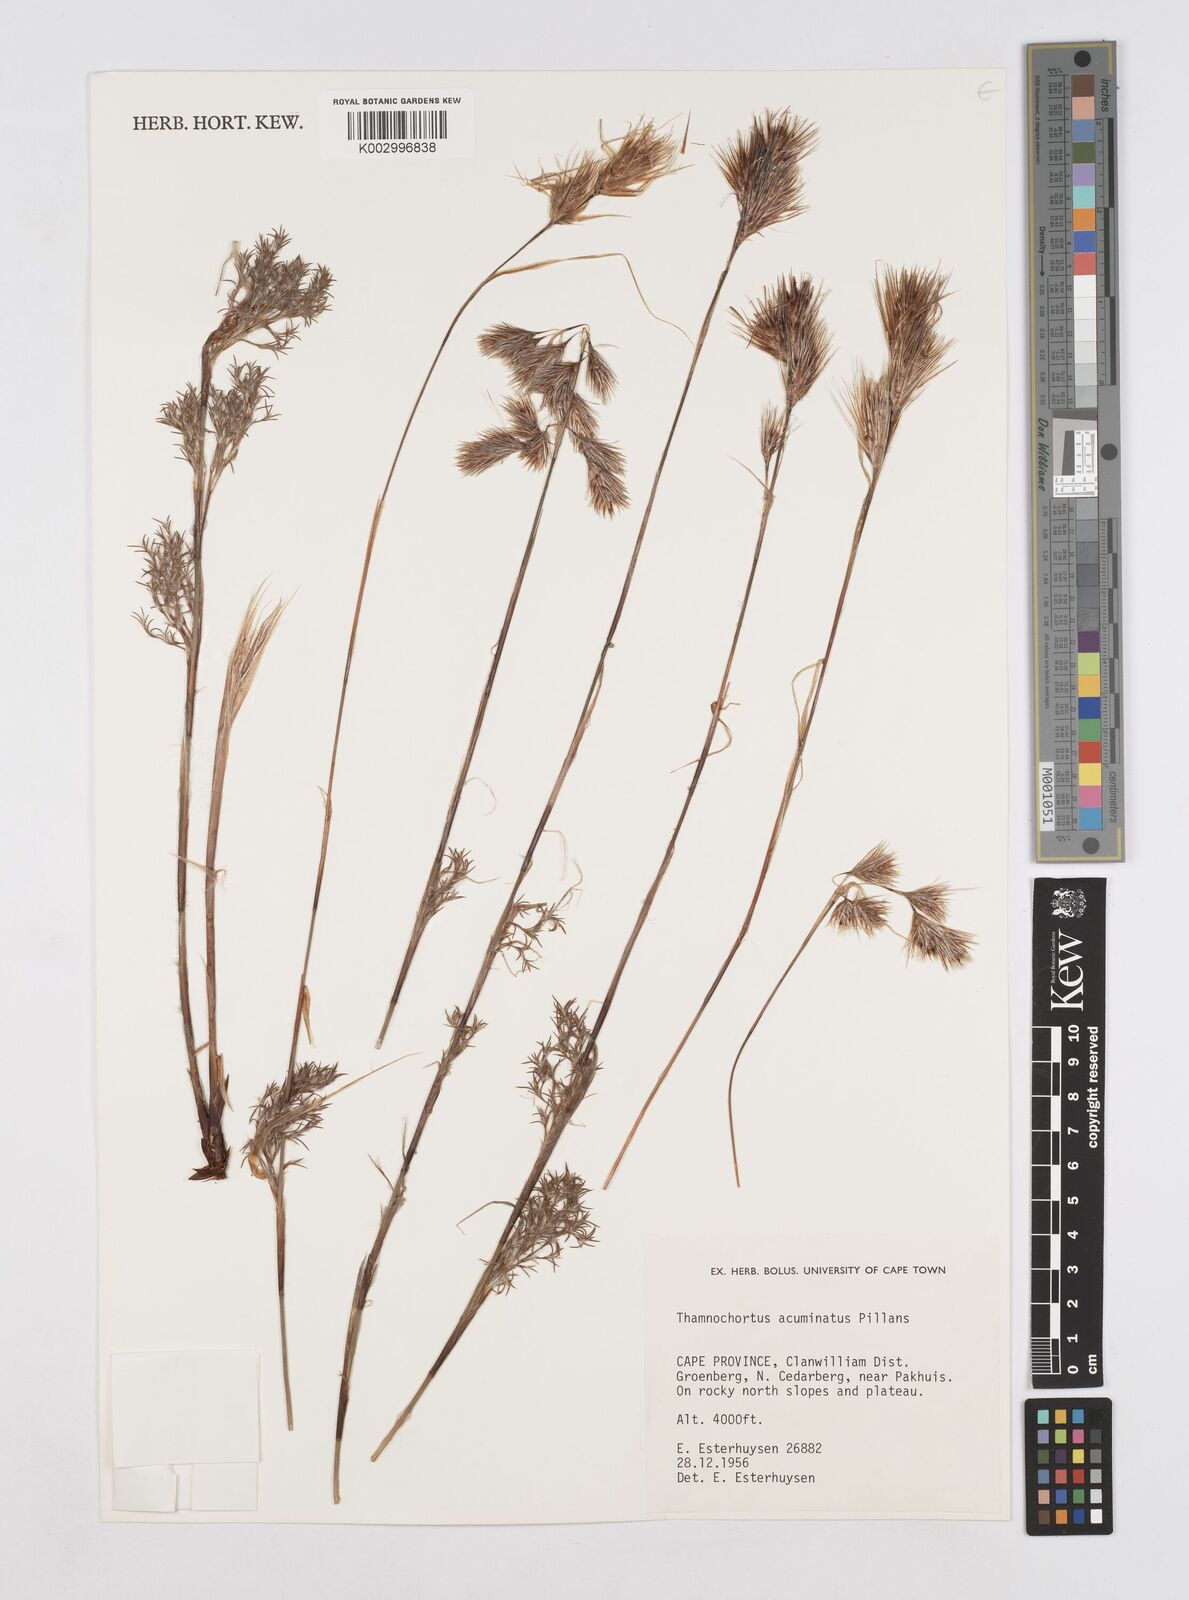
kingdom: Plantae
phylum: Tracheophyta
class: Liliopsida
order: Poales
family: Restionaceae
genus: Thamnochortus
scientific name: Thamnochortus acuminatus
